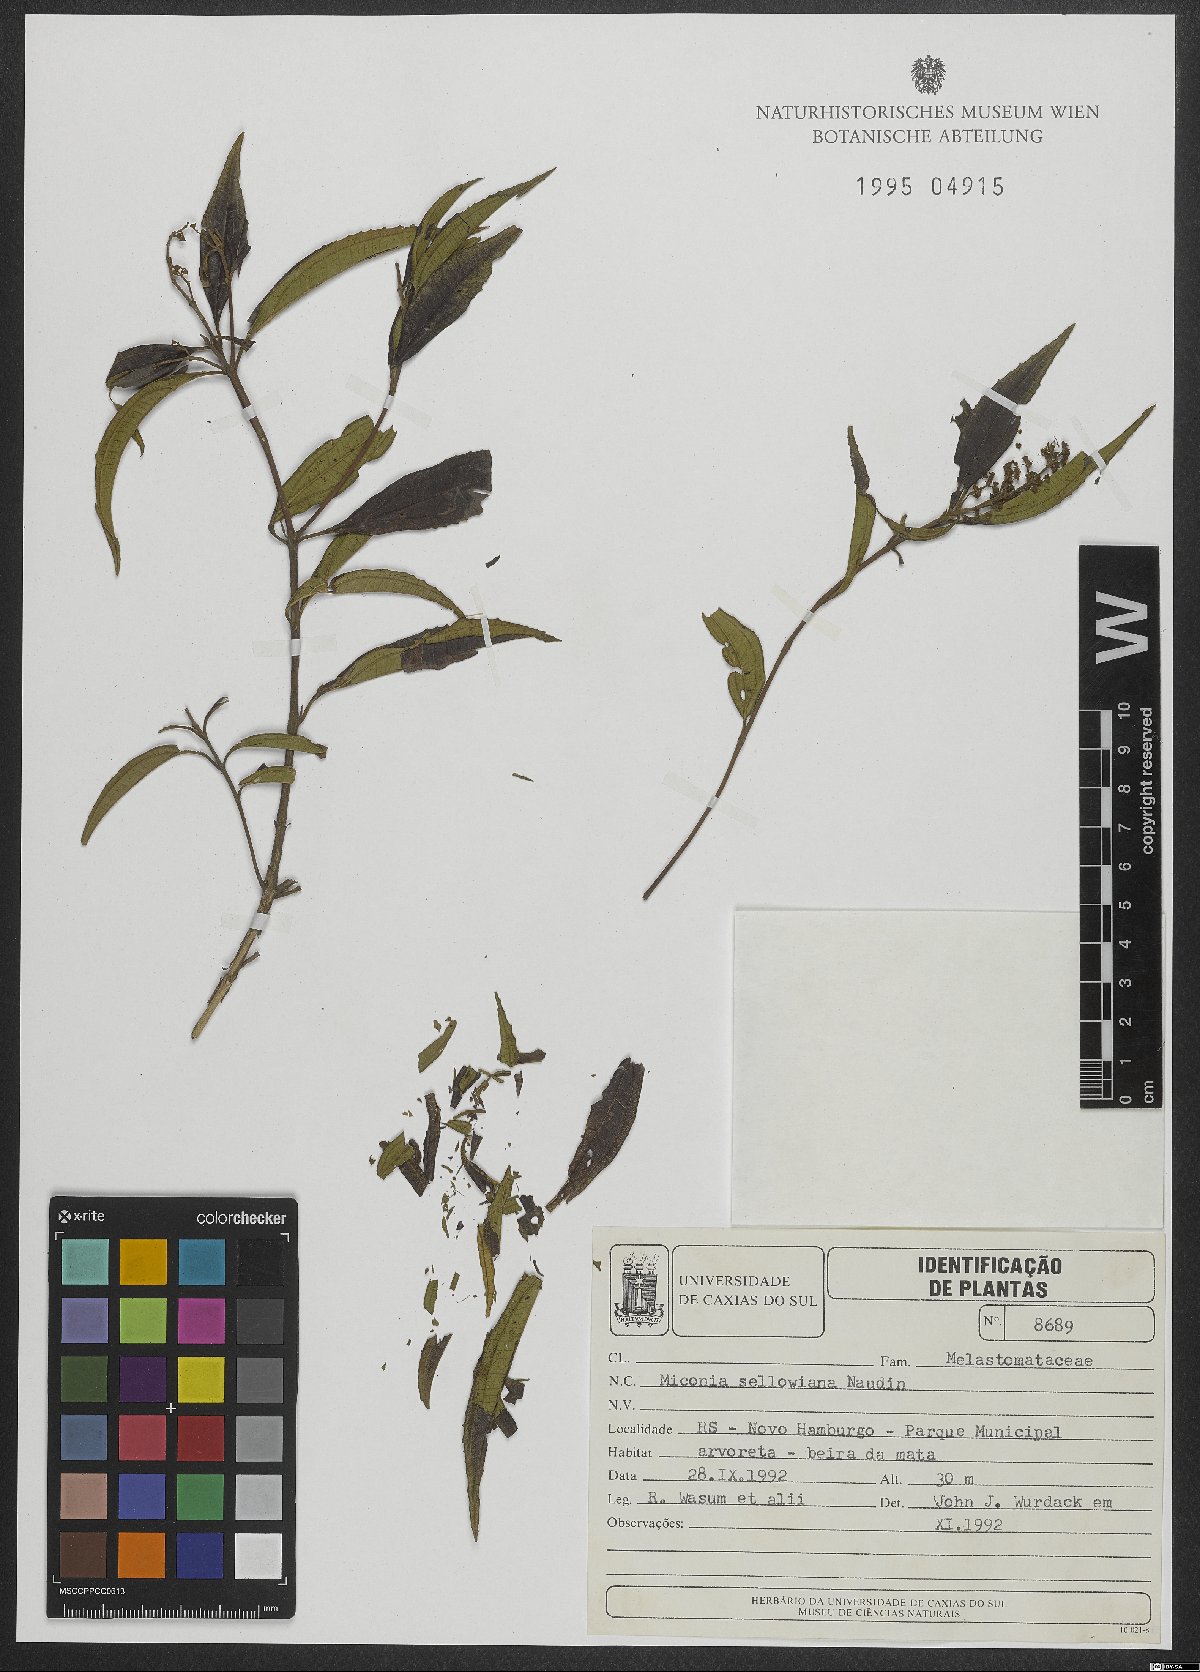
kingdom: Plantae
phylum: Tracheophyta
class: Magnoliopsida
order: Myrtales
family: Melastomataceae
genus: Miconia
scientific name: Miconia sellowiana
